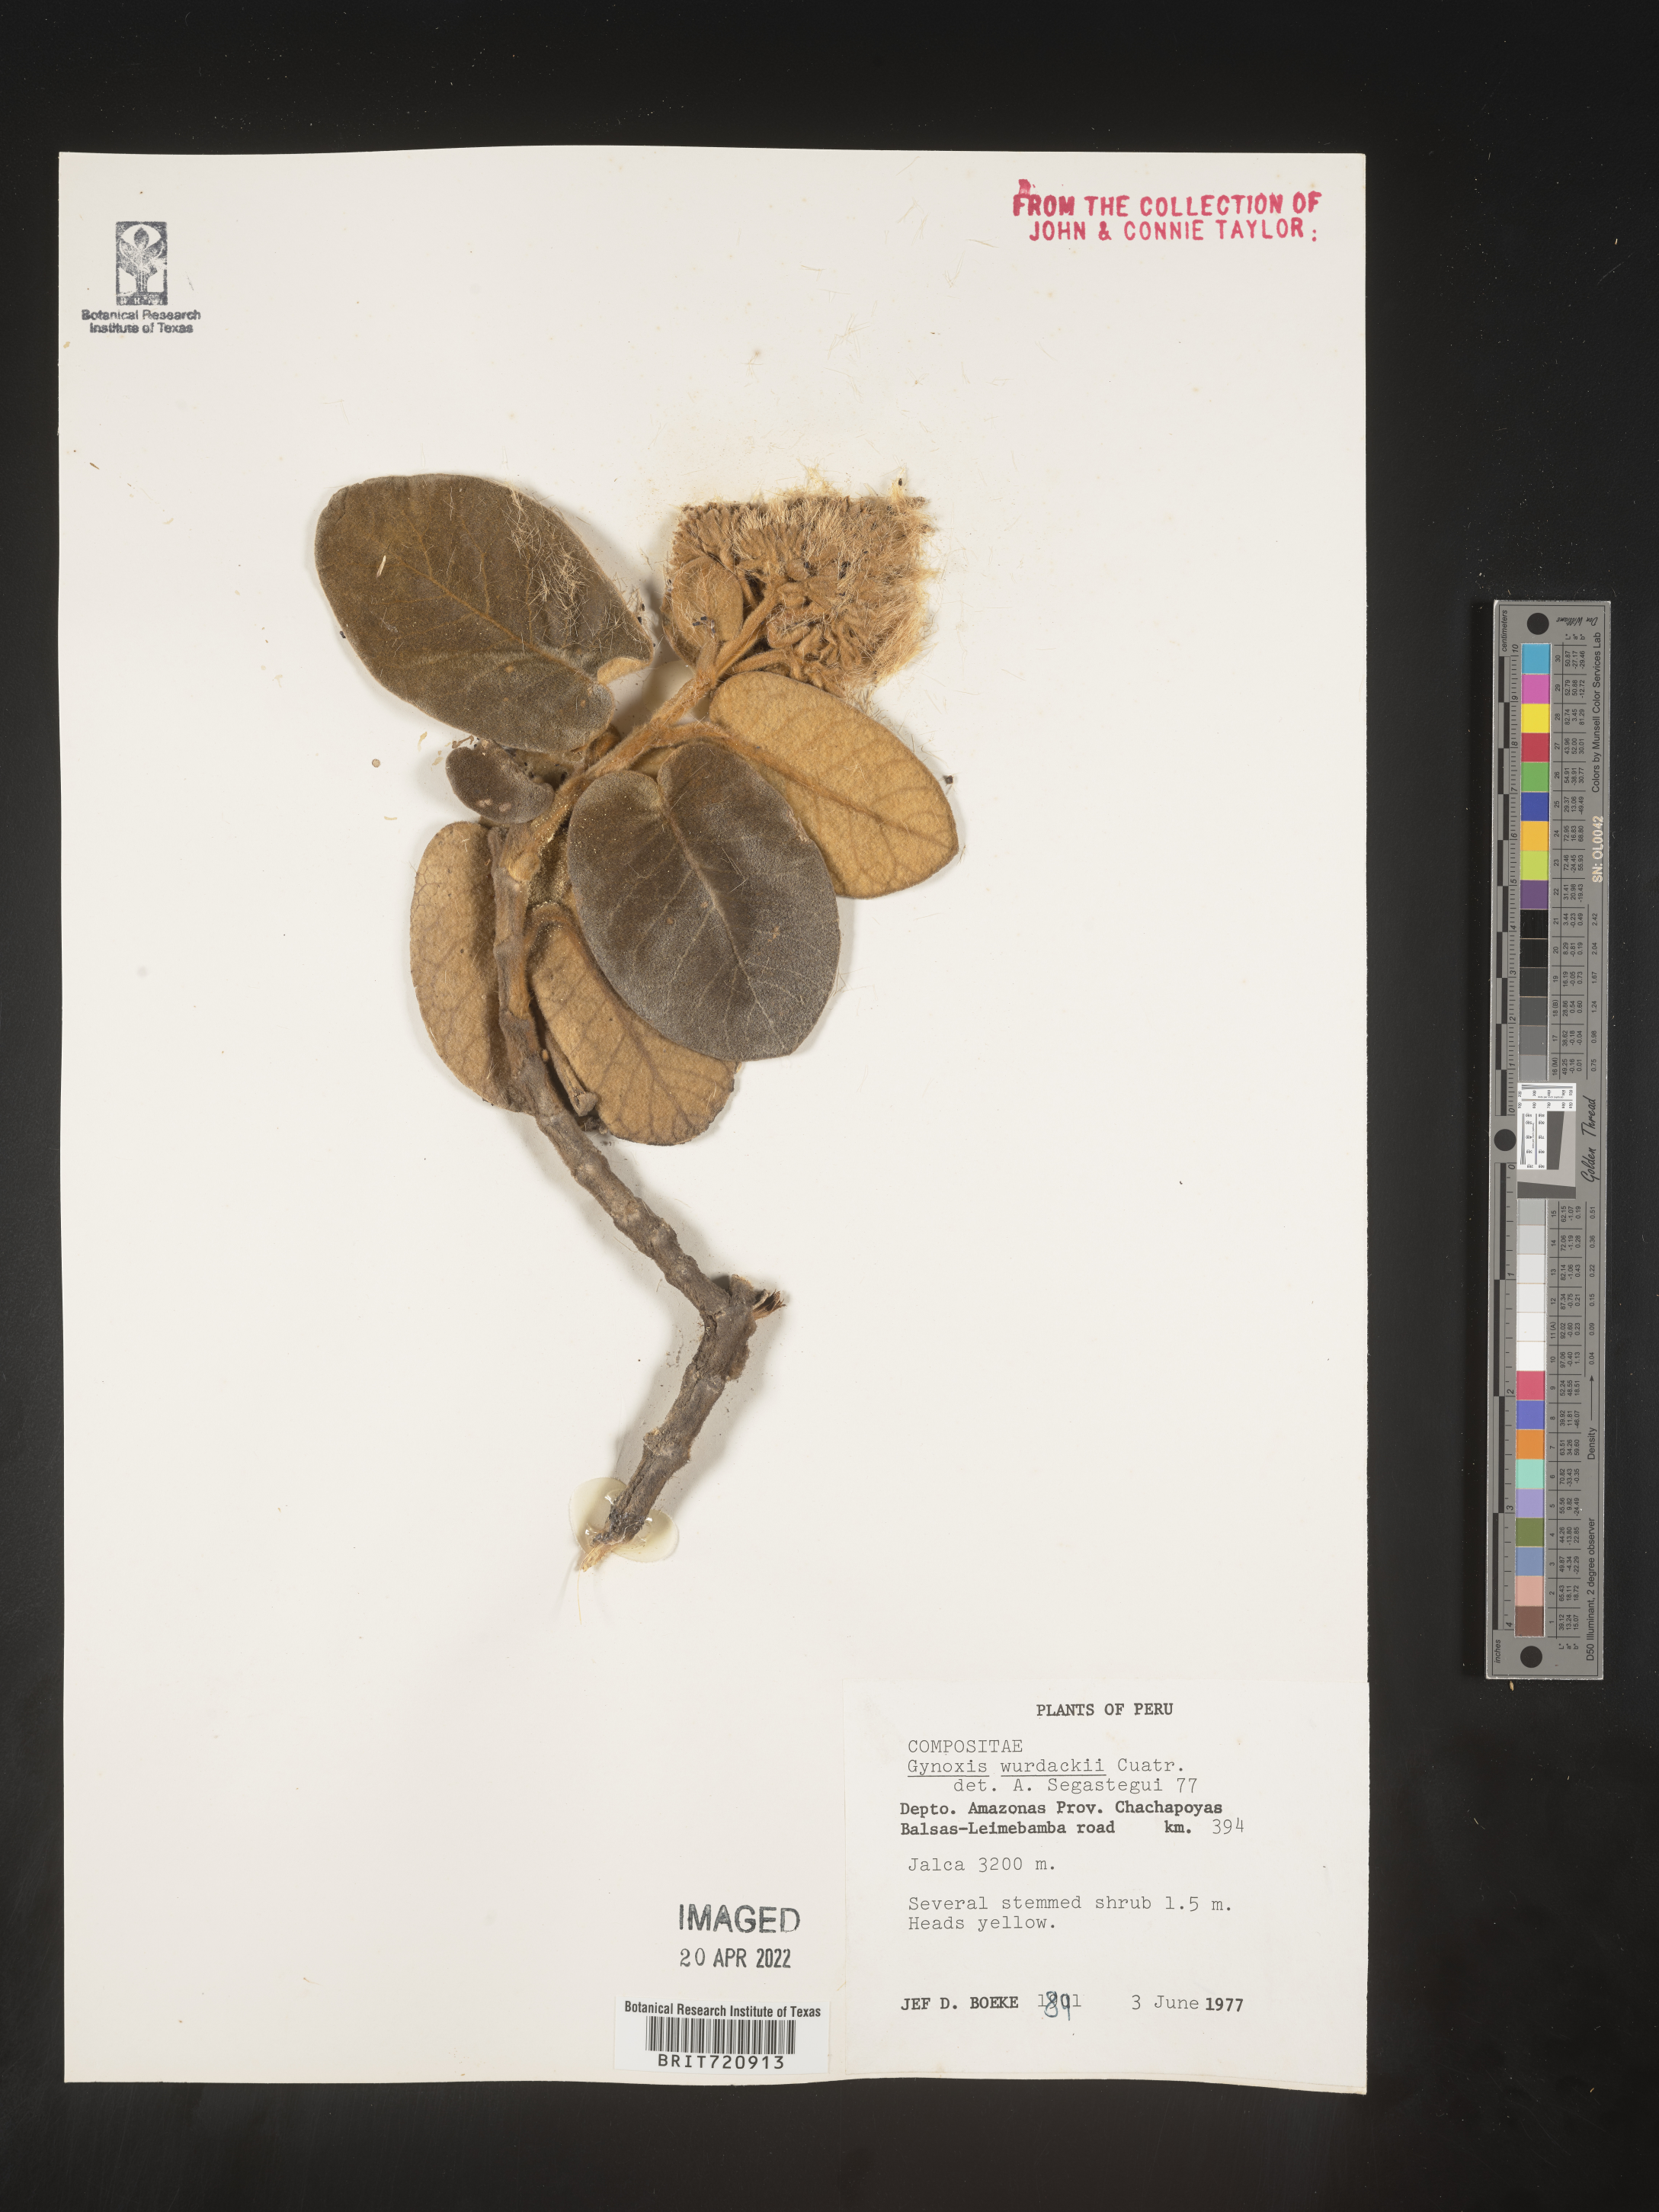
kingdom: Plantae
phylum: Tracheophyta
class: Magnoliopsida
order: Asterales
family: Asteraceae
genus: Gynoxys
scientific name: Gynoxys
